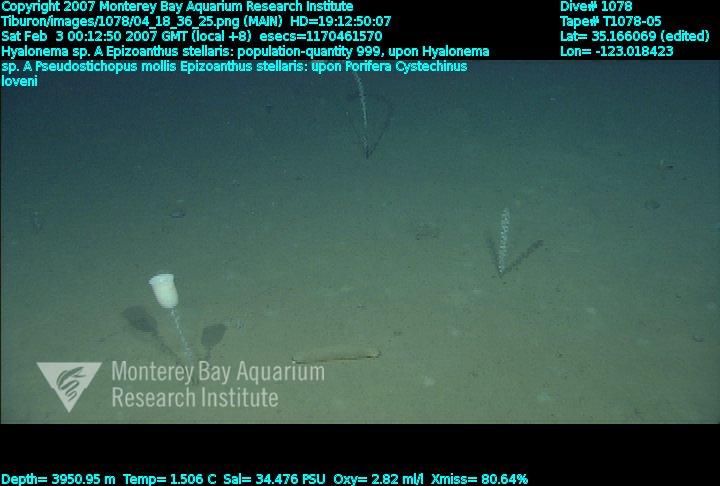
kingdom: Animalia
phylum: Porifera
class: Hexactinellida
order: Amphidiscosida
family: Hyalonematidae
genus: Hyalonema
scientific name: Hyalonema
